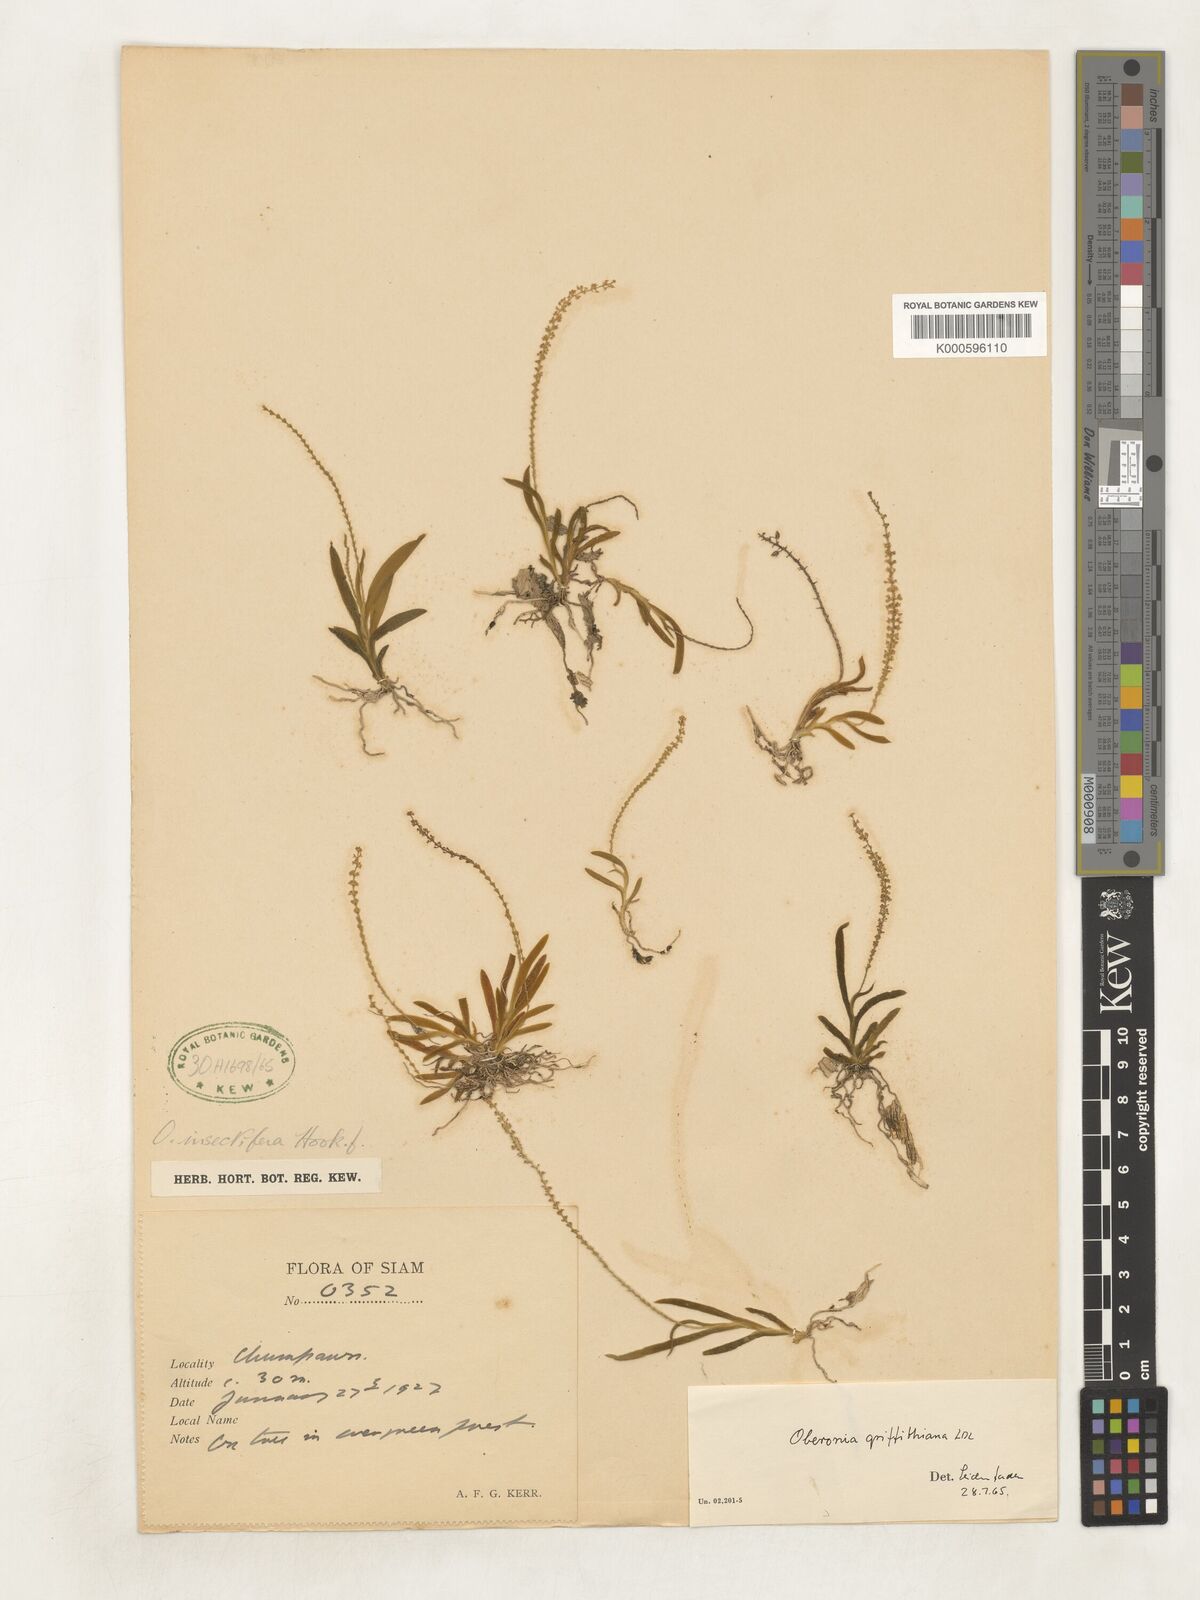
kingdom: Plantae
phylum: Tracheophyta
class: Liliopsida
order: Asparagales
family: Orchidaceae
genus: Oberonia
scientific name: Oberonia griffithiana
